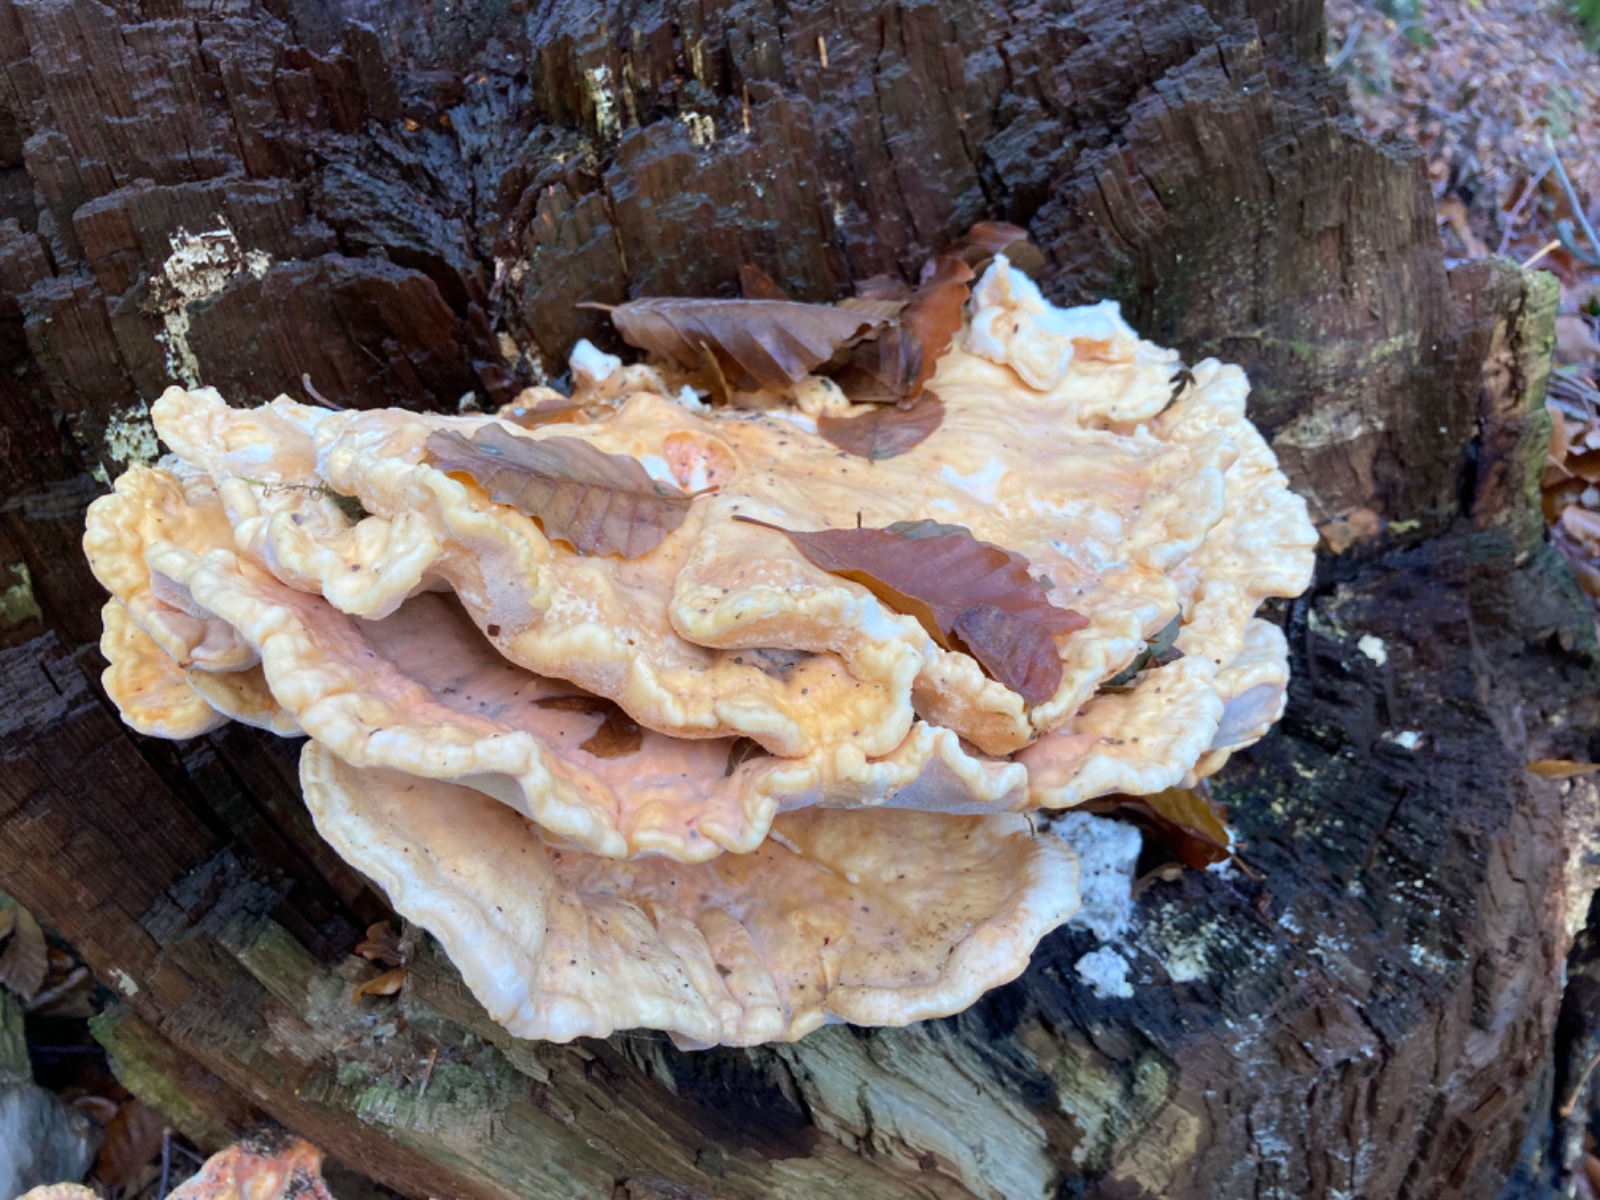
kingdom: Fungi
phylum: Basidiomycota
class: Agaricomycetes
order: Polyporales
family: Meripilaceae
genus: Meripilus
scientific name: Meripilus giganteus
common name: kæmpeporesvamp
